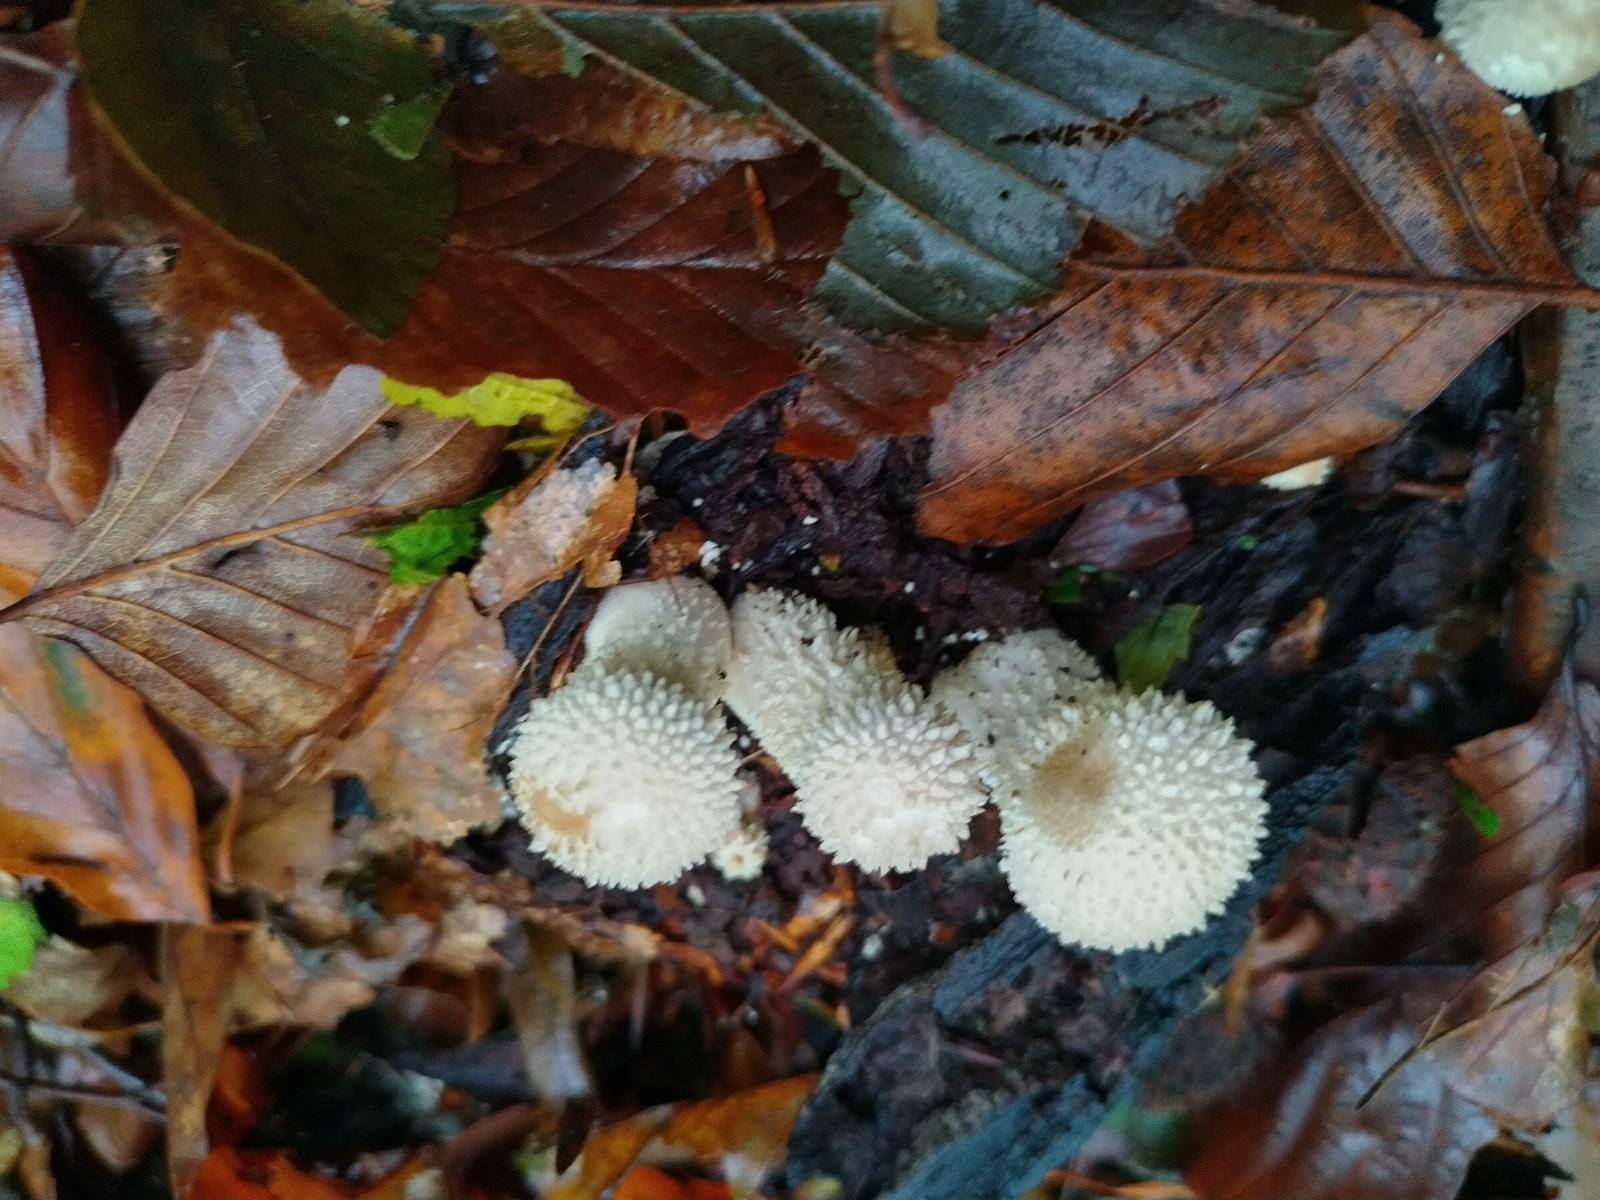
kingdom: Fungi
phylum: Basidiomycota
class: Agaricomycetes
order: Agaricales
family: Lycoperdaceae
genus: Lycoperdon
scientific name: Lycoperdon perlatum
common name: krystal-støvbold
